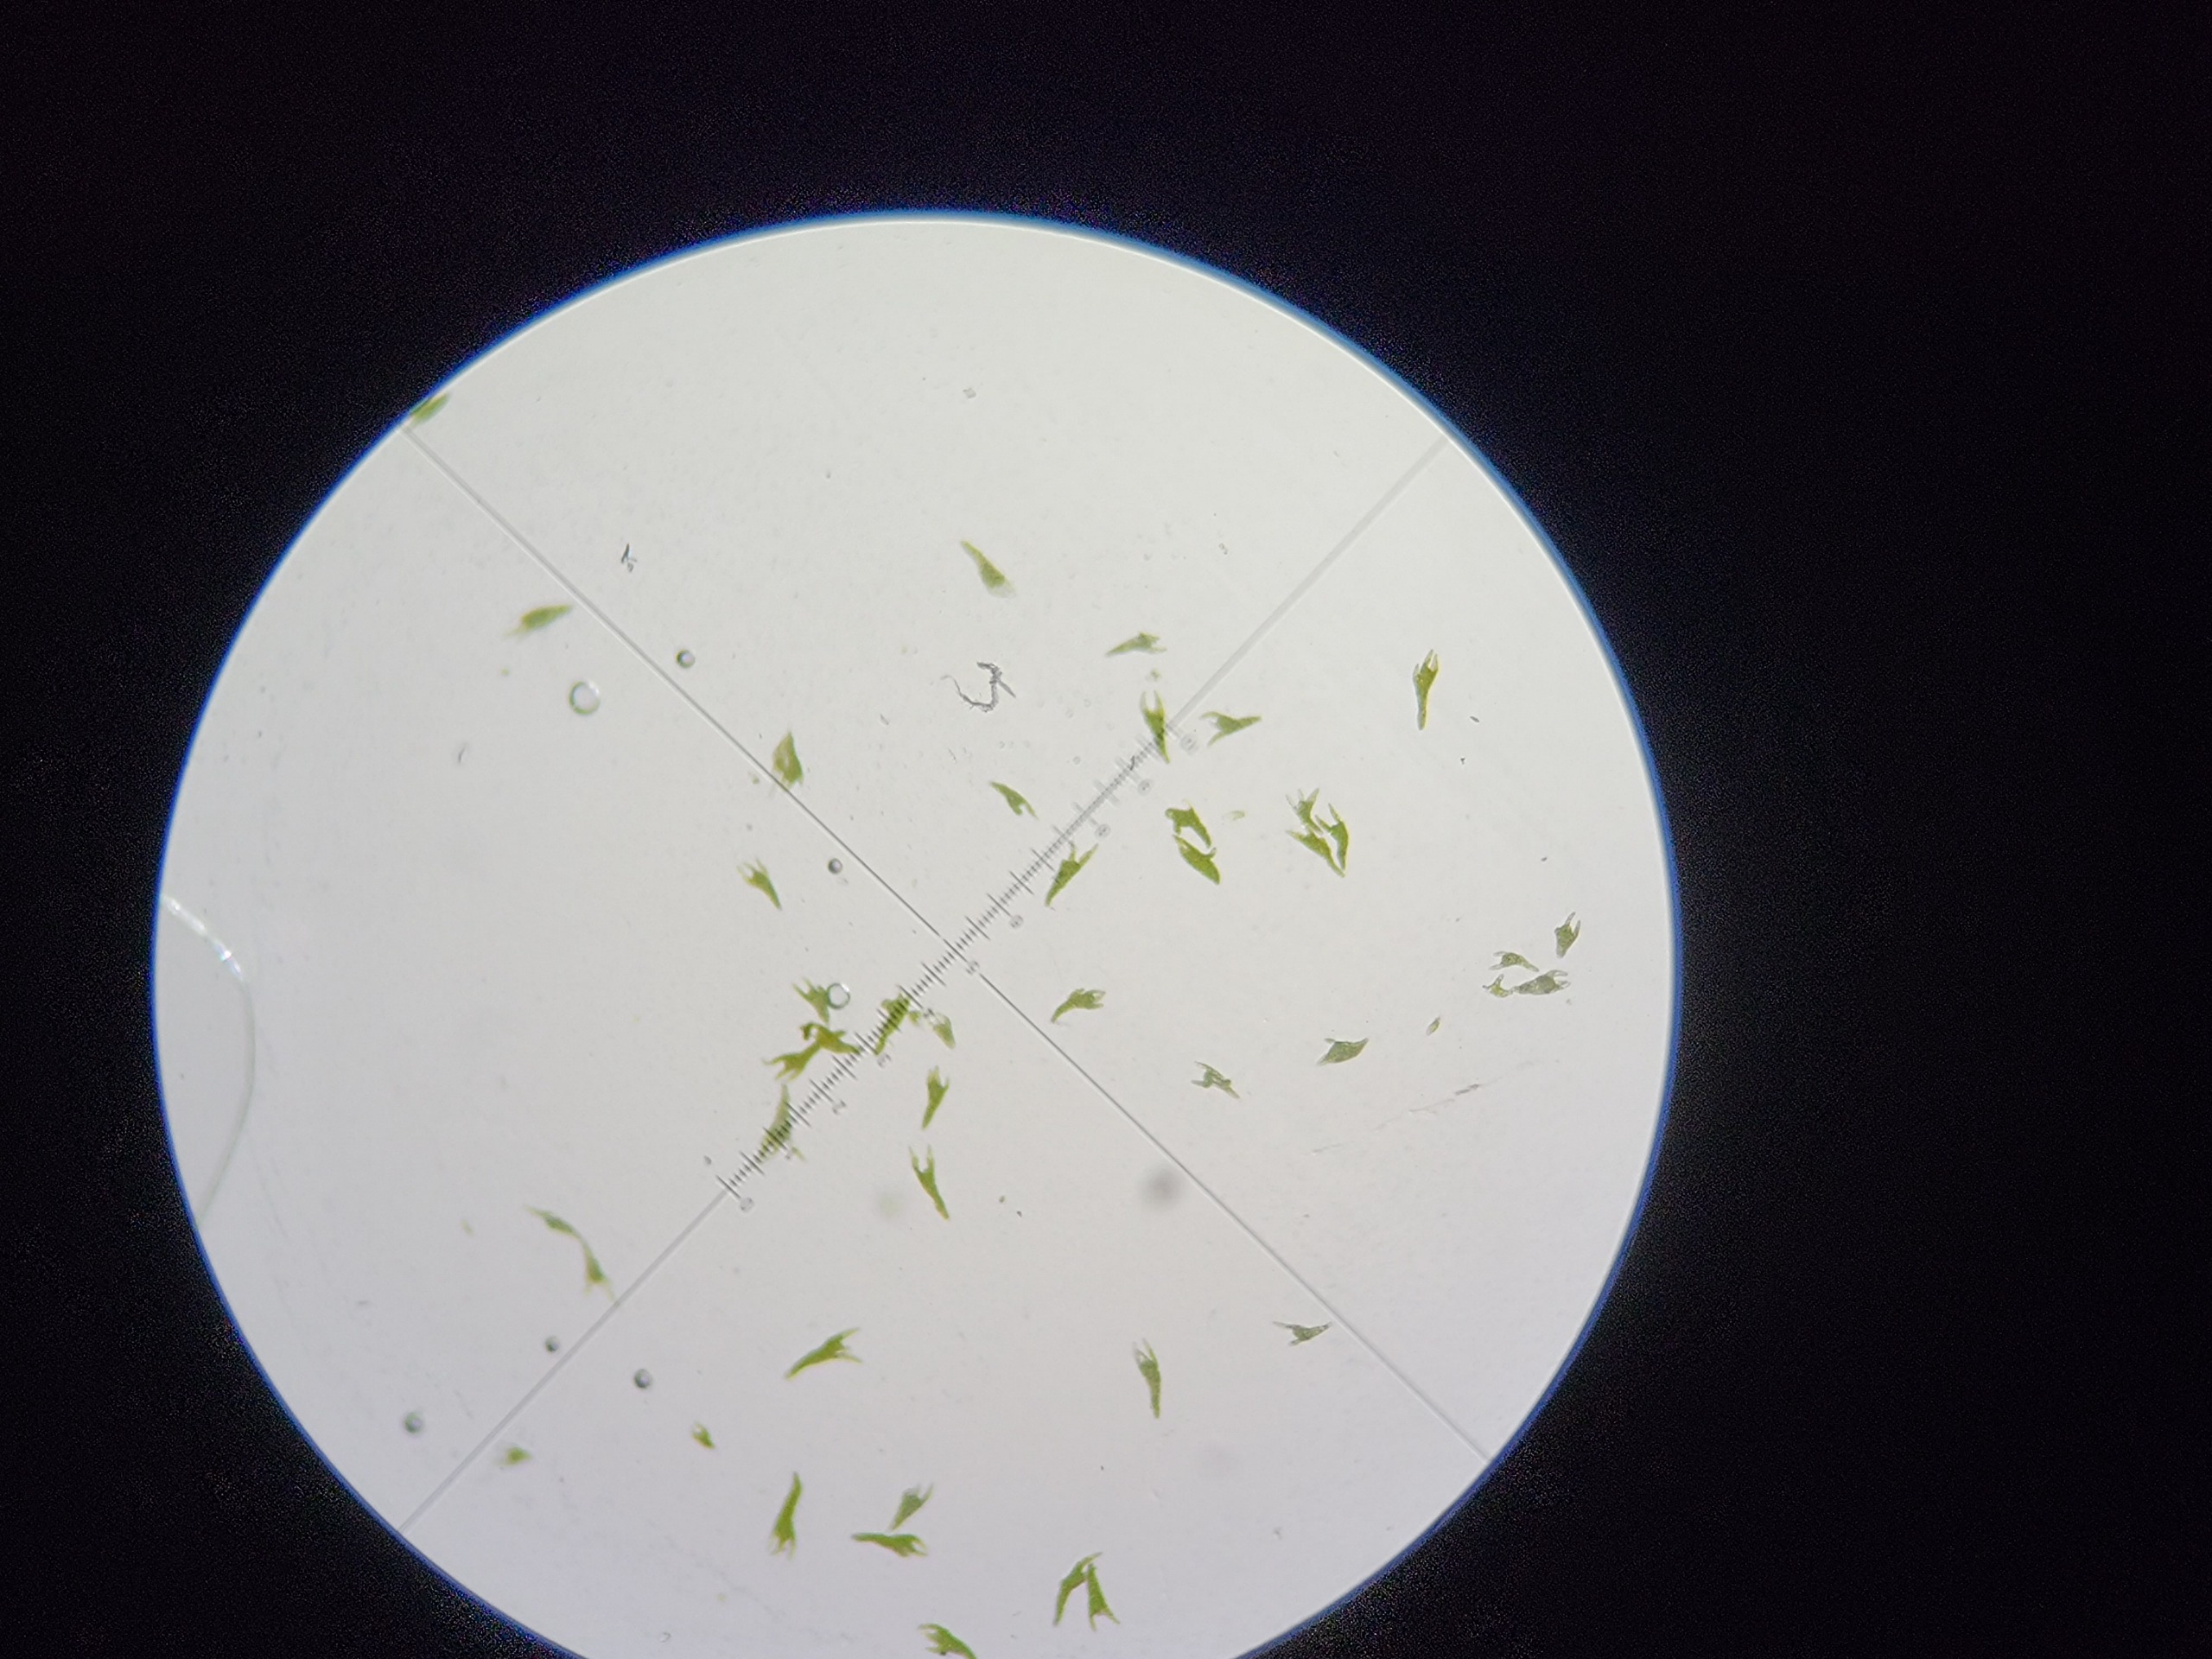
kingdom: Plantae
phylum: Bryophyta
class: Bryopsida
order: Bryales
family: Mniaceae
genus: Pohlia
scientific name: Pohlia annotina
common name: Blød nikkemos
